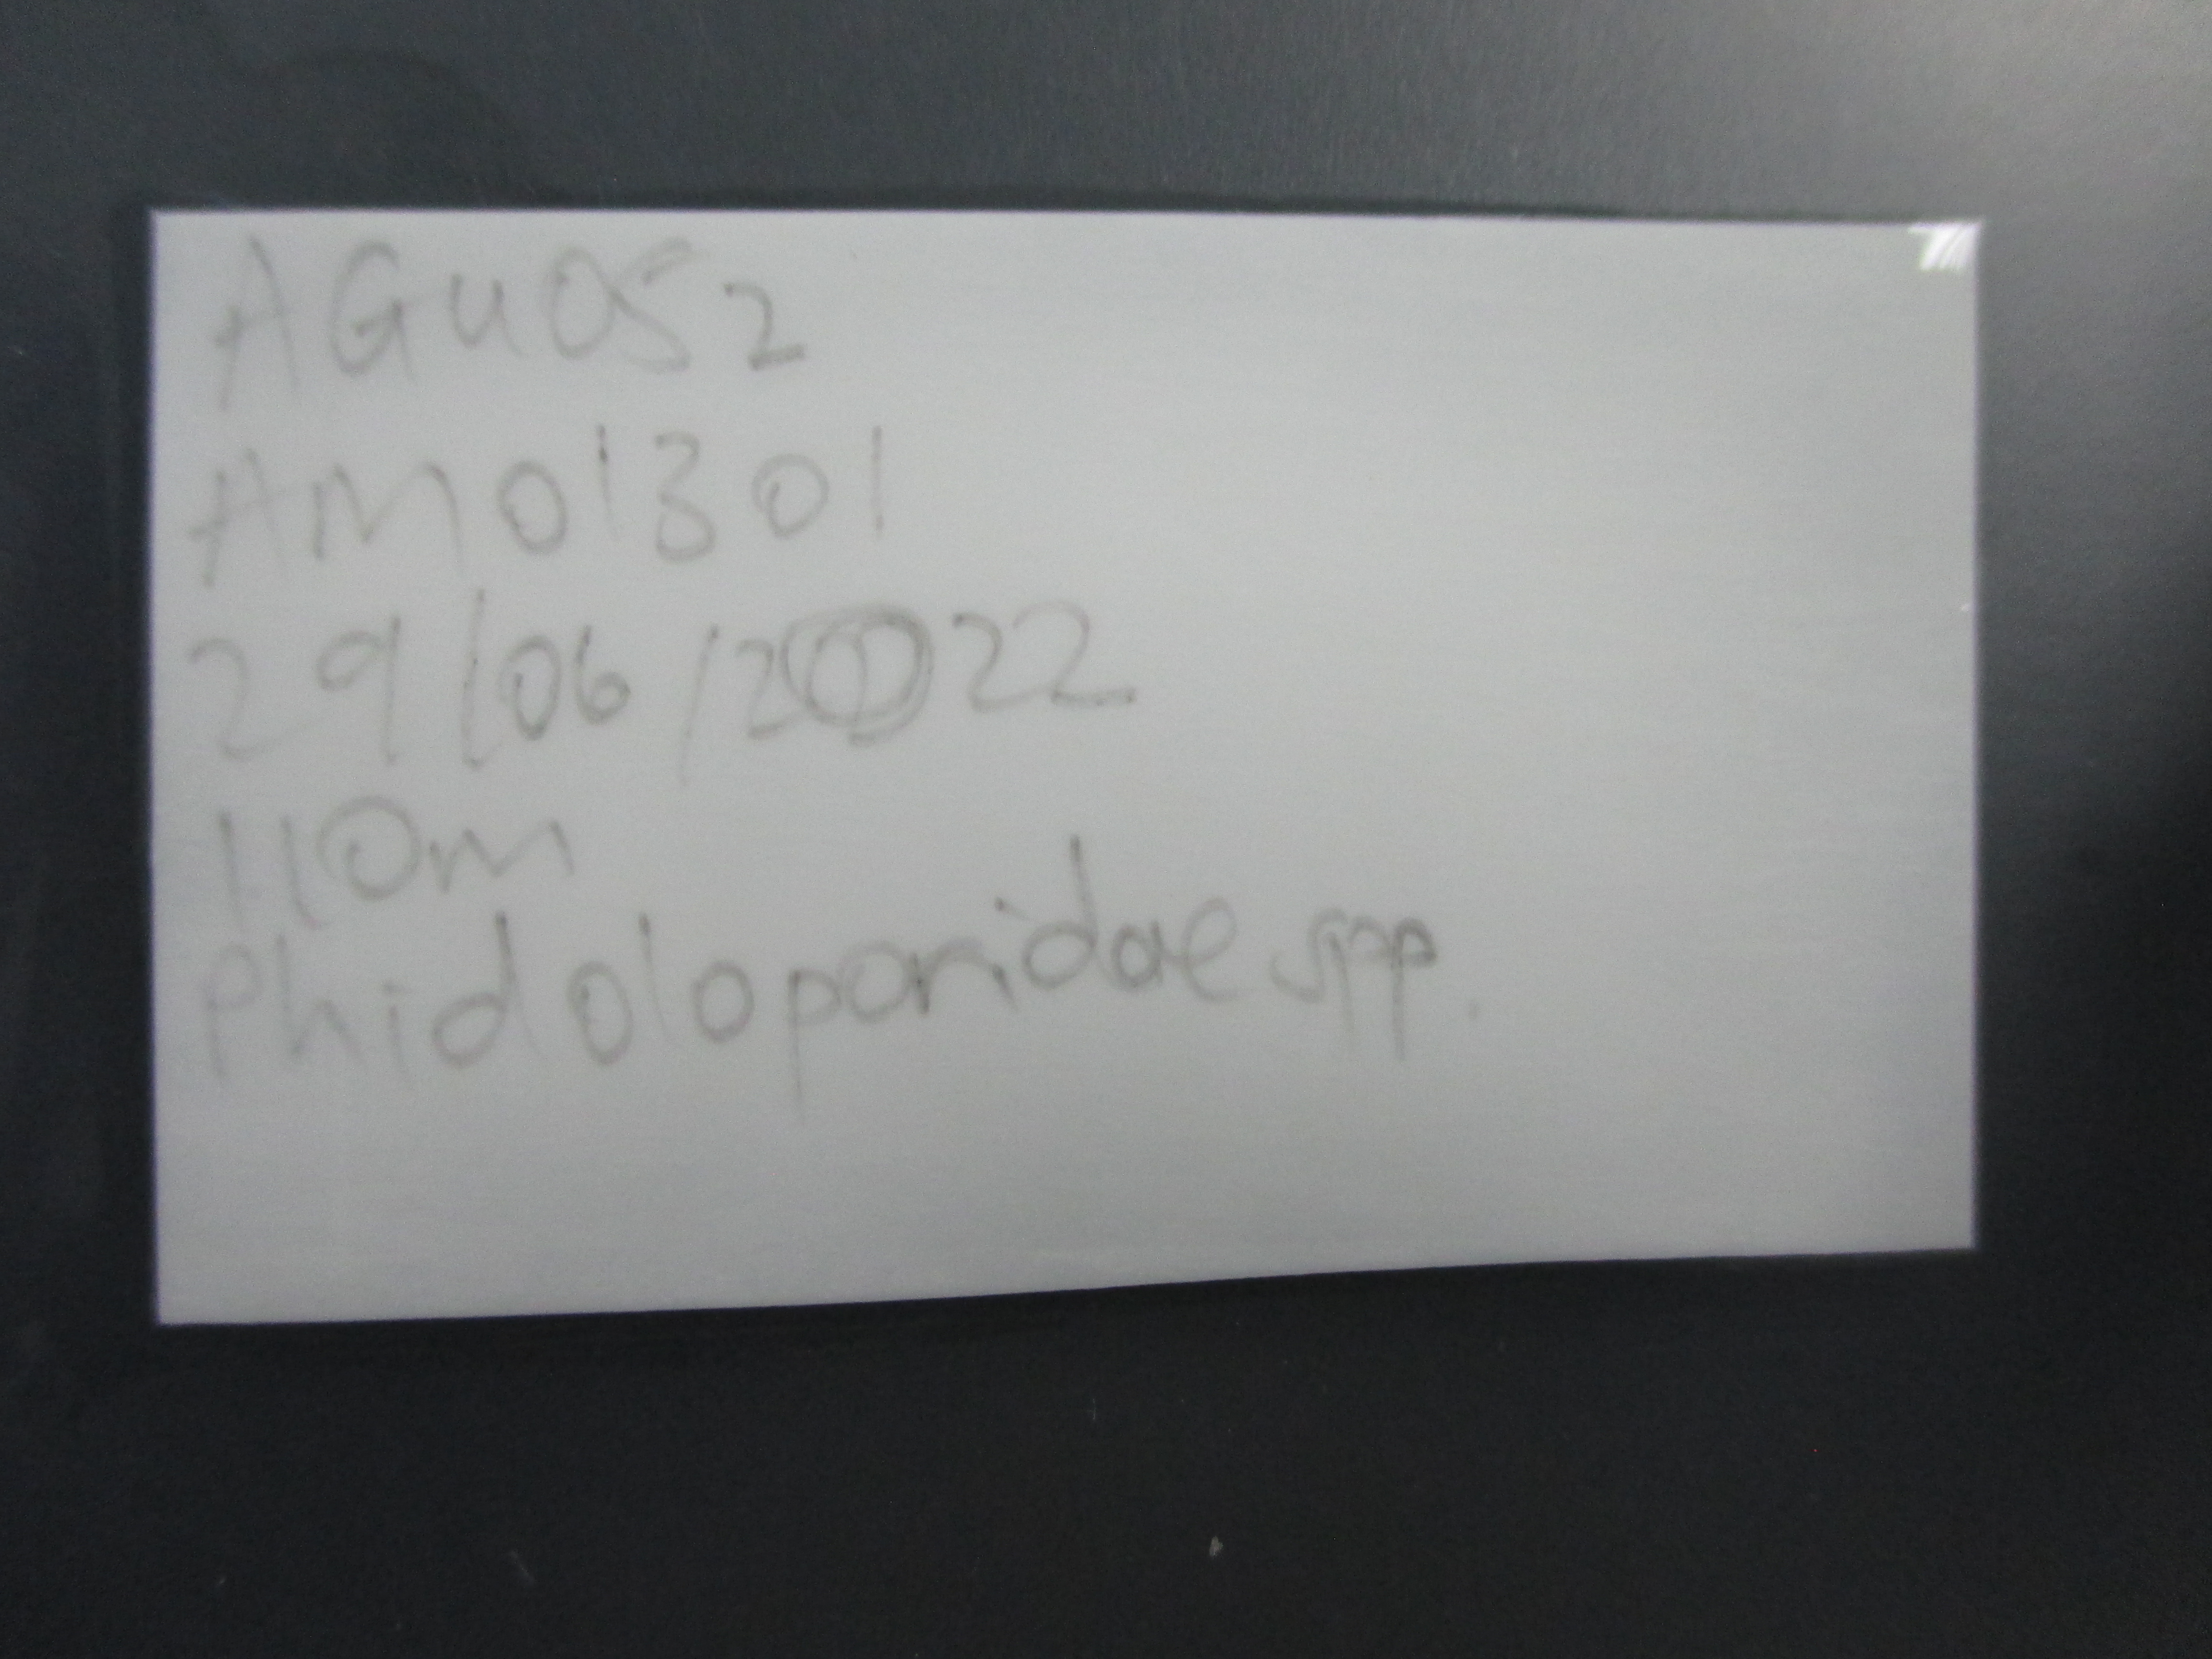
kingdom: Animalia
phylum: Bryozoa
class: Gymnolaemata
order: Cheilostomatida
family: Phidoloporidae
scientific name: Phidoloporidae
